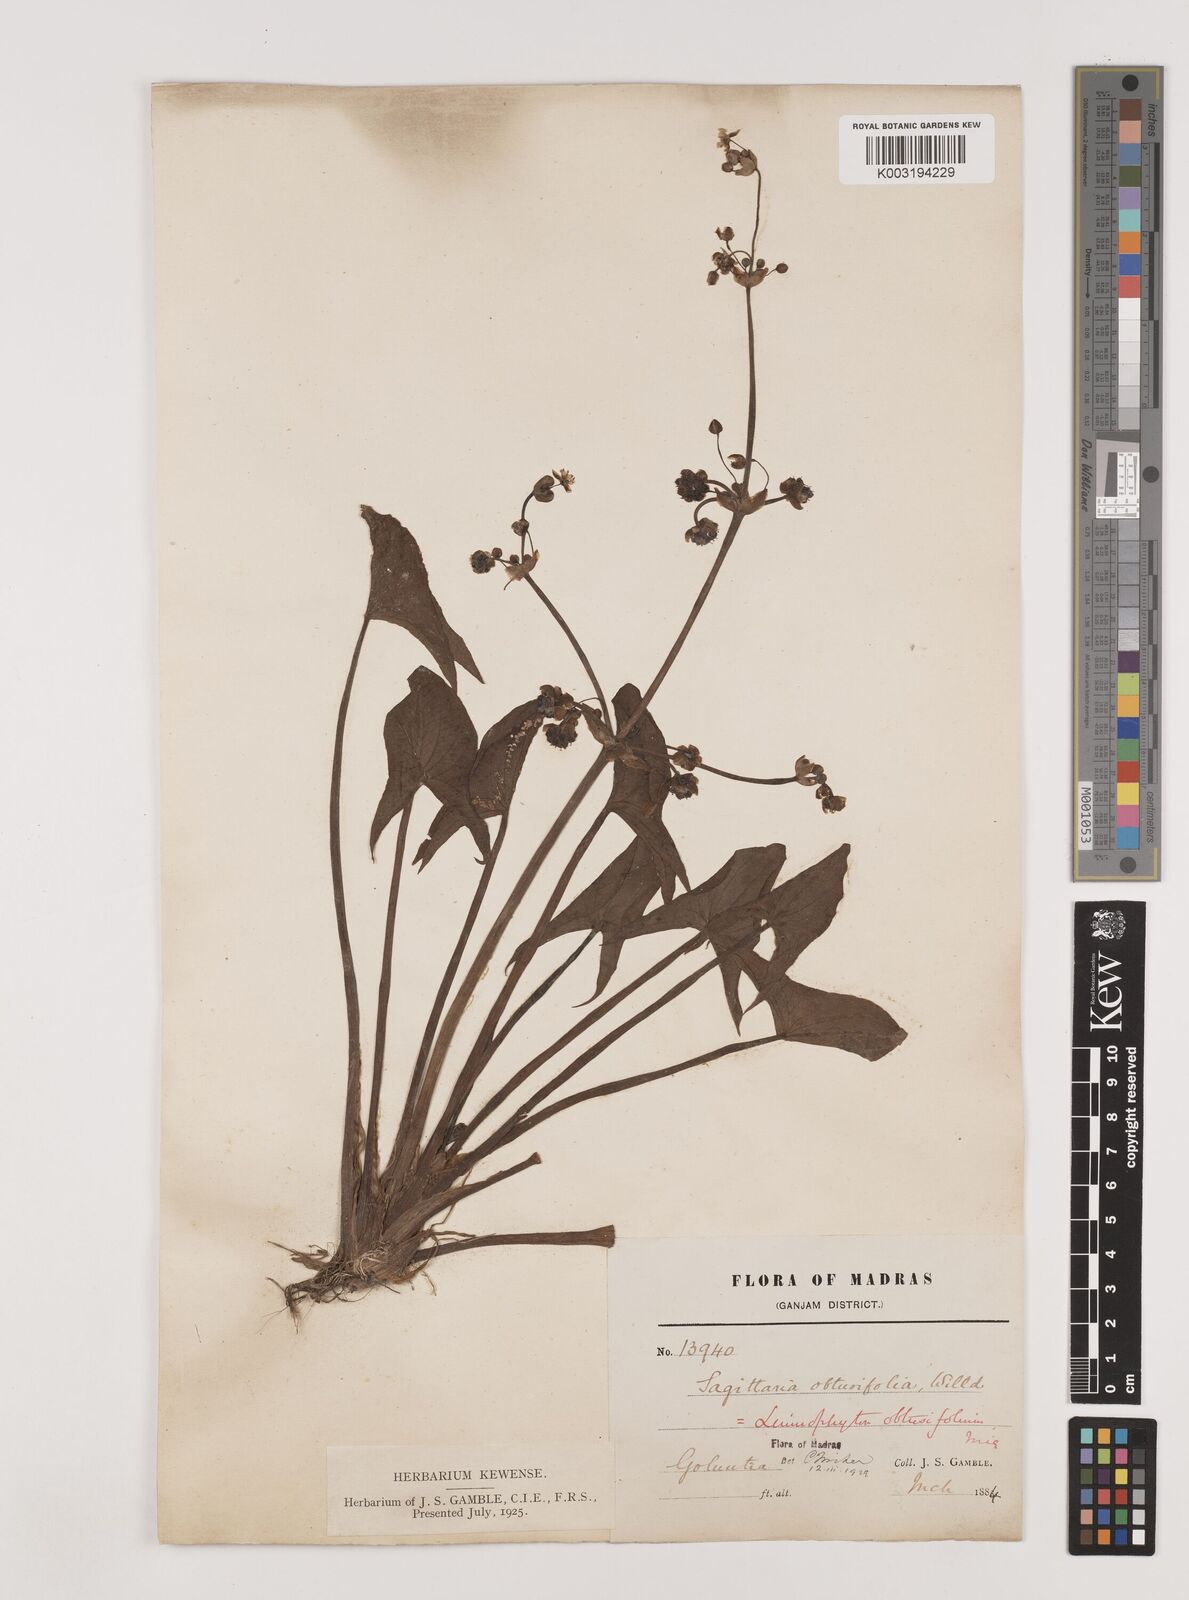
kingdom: Plantae
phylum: Tracheophyta
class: Liliopsida
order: Alismatales
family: Alismataceae
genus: Limnophyton
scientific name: Limnophyton obtusifolium
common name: Arrow head
